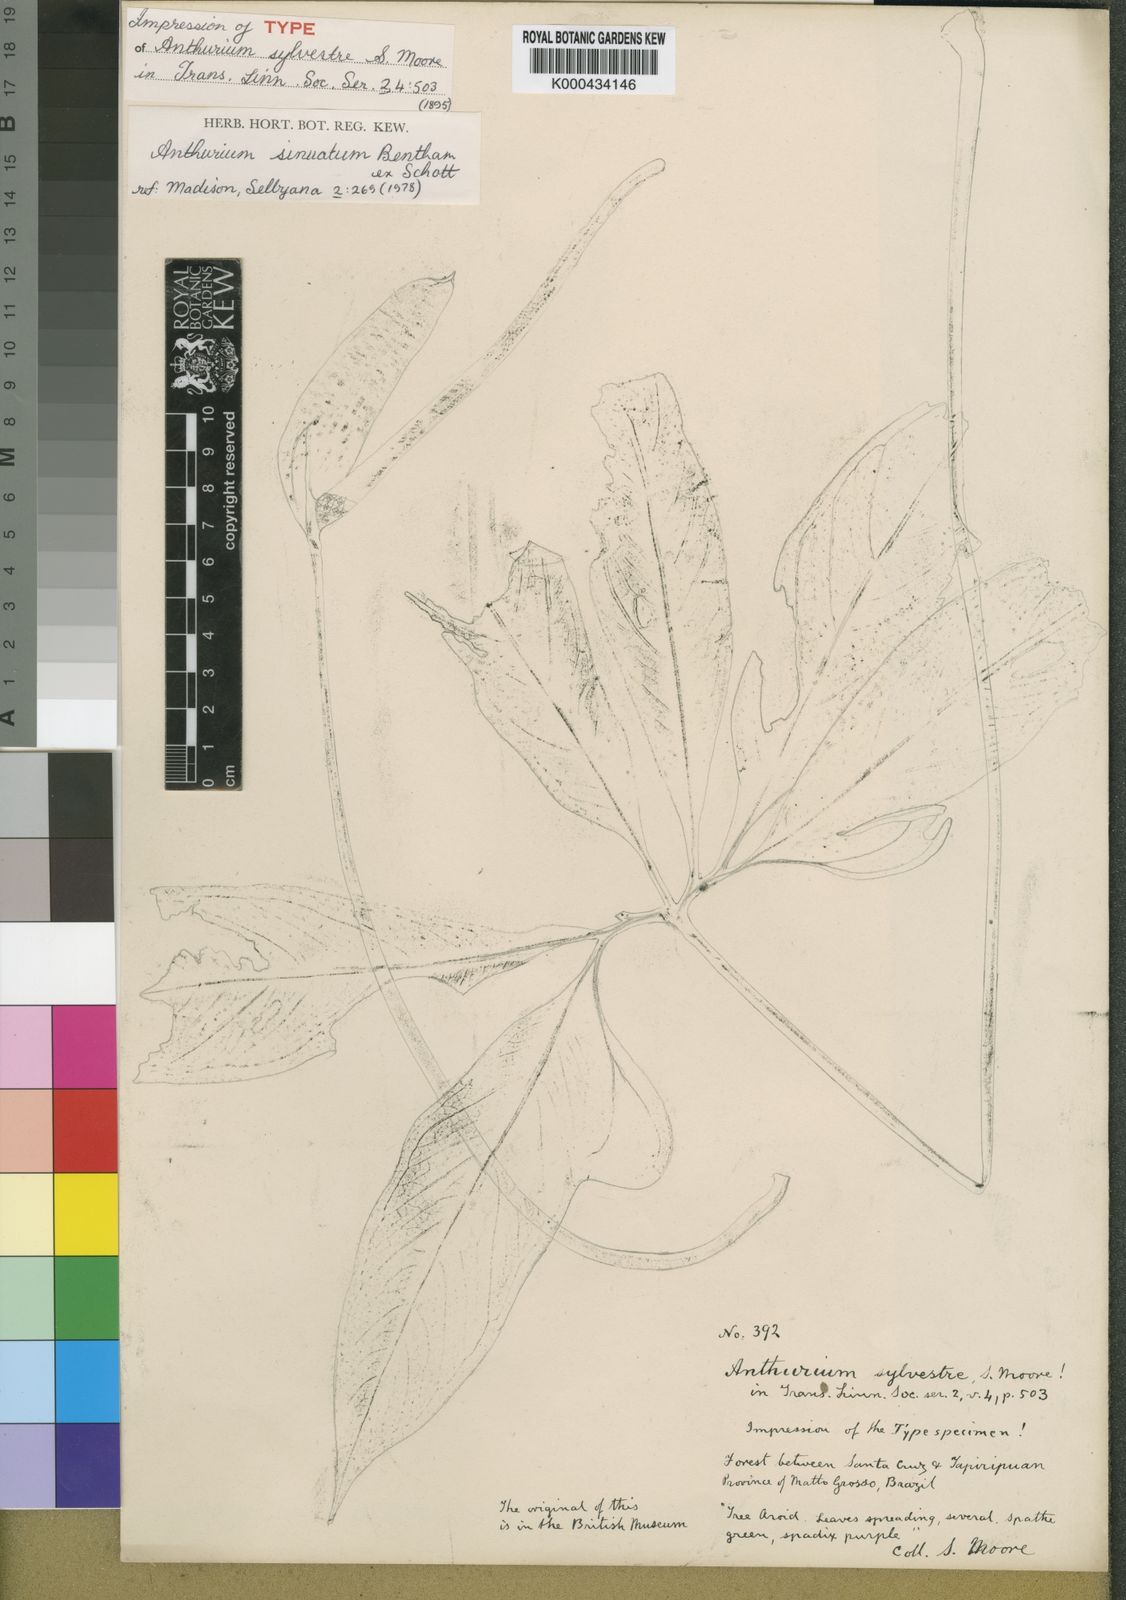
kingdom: Plantae
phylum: Tracheophyta
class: Liliopsida
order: Alismatales
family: Araceae
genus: Anthurium
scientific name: Anthurium sinuatum
